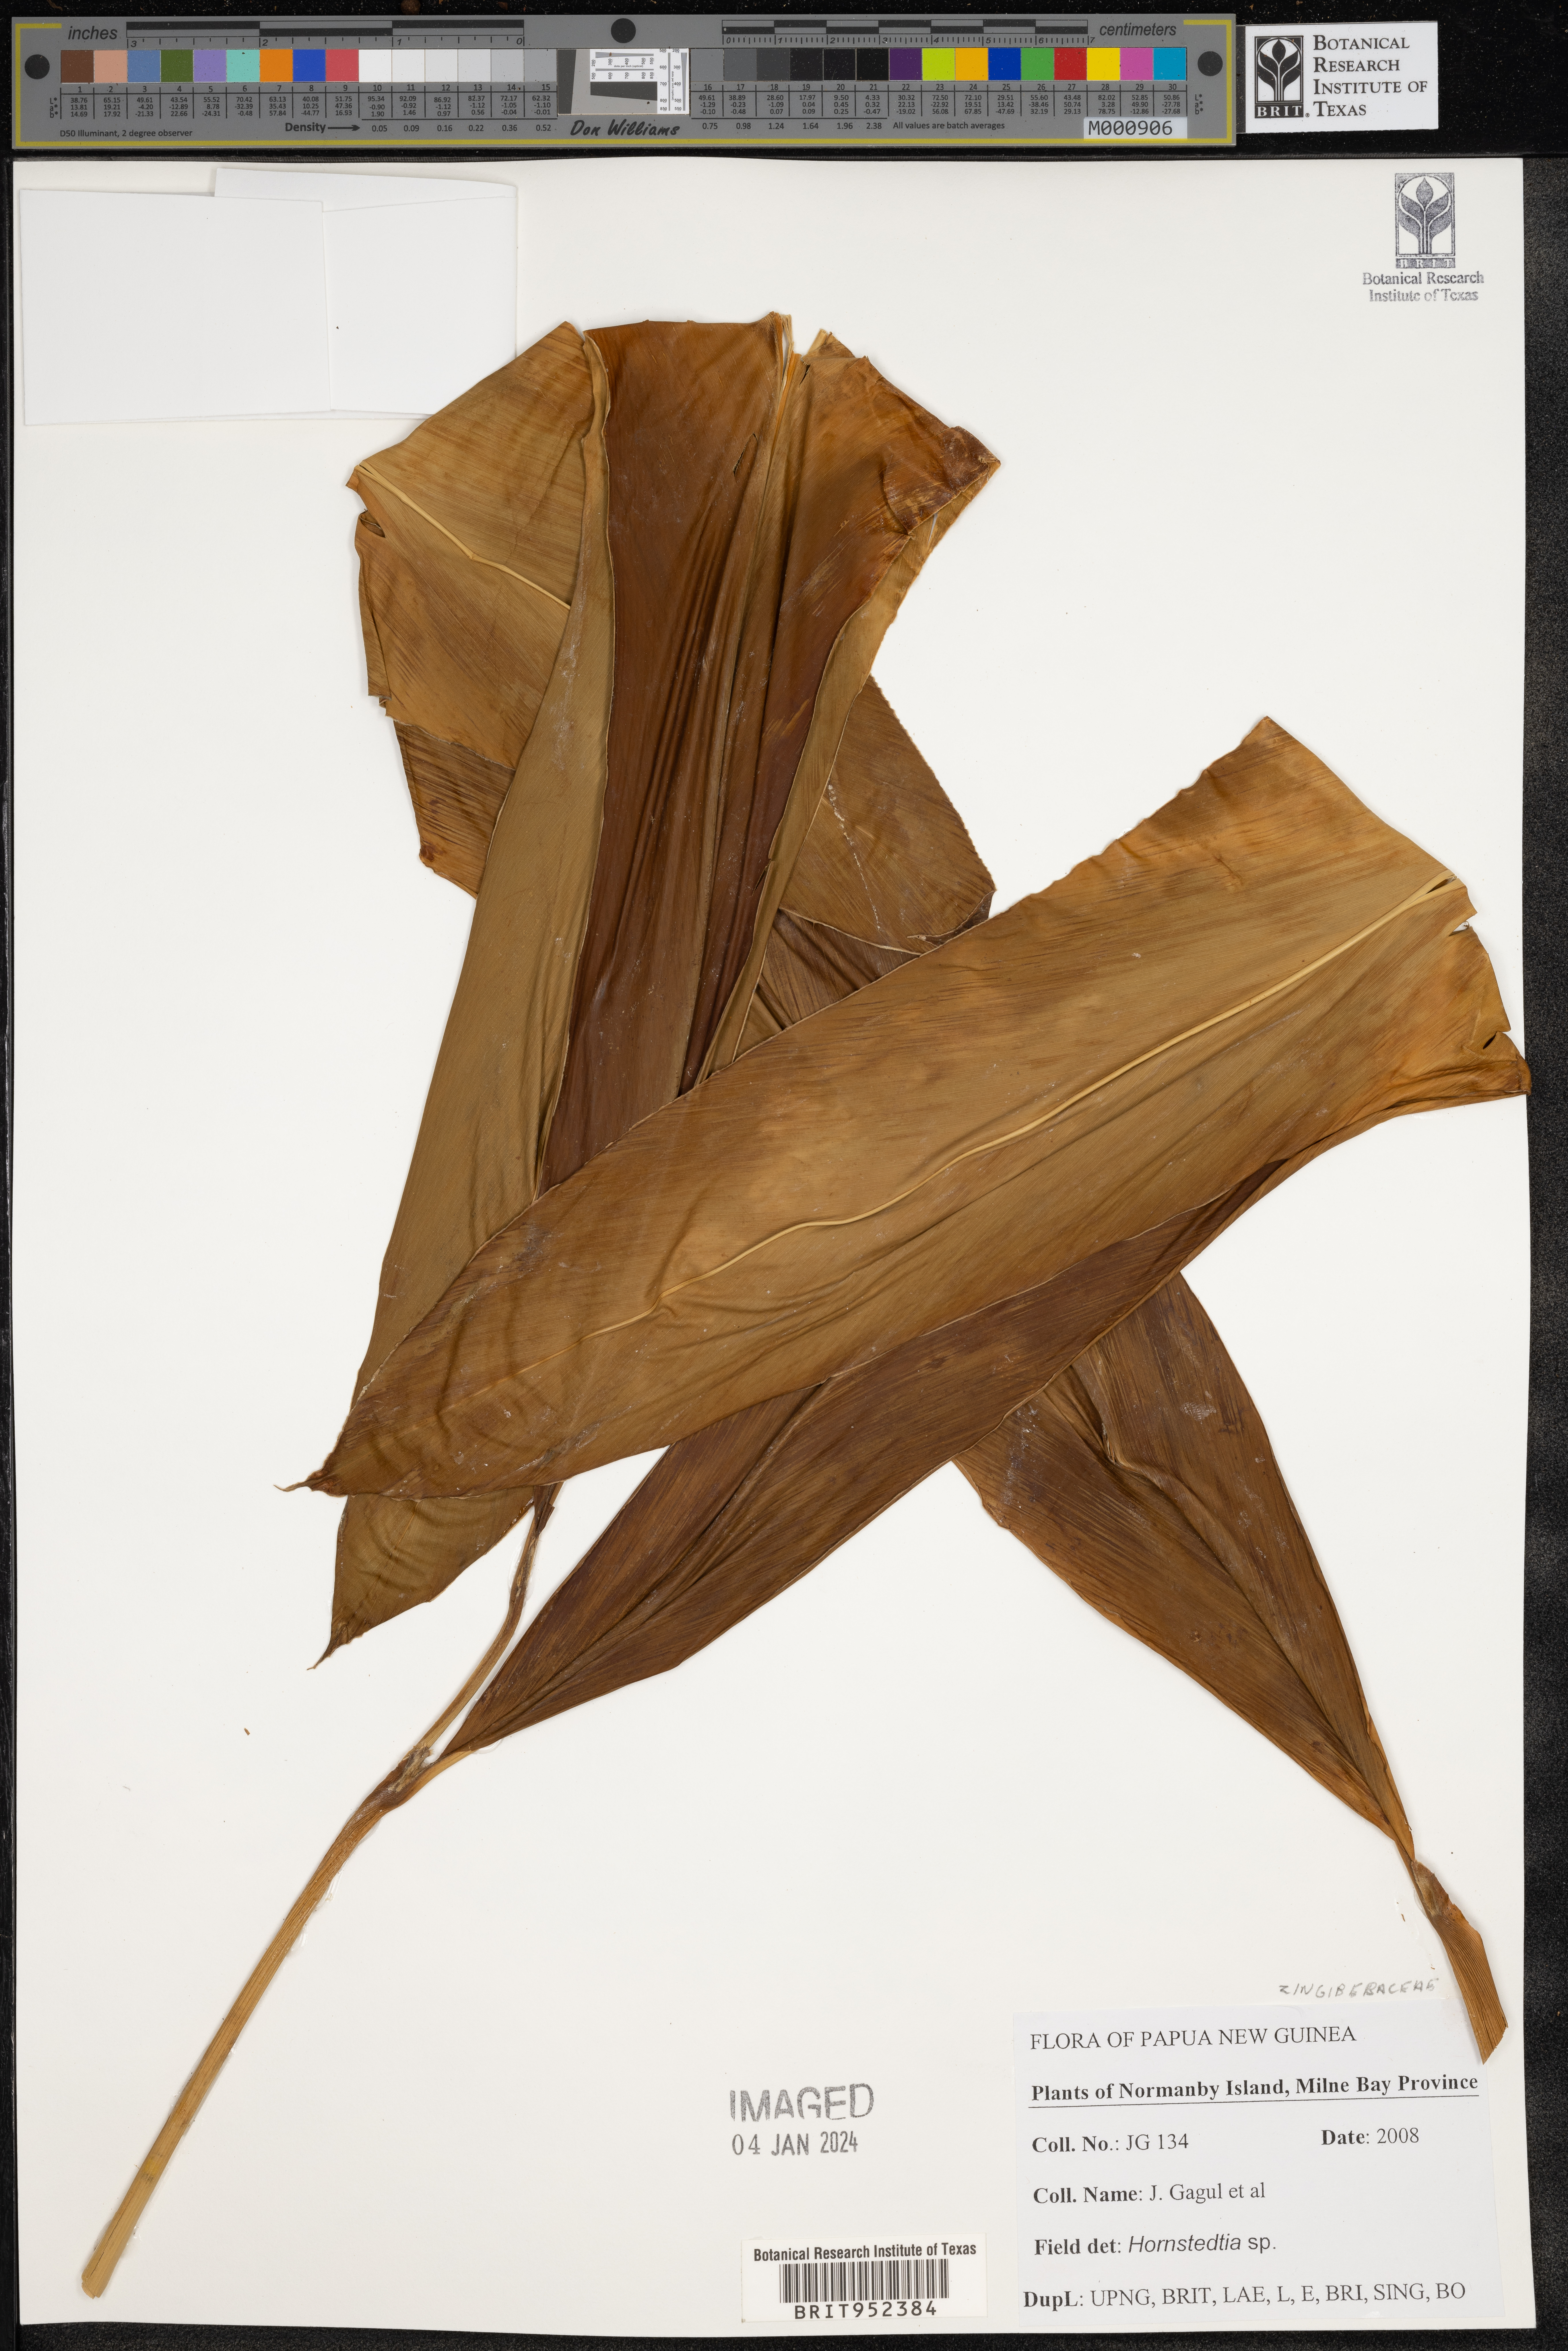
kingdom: Plantae
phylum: Tracheophyta
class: Liliopsida
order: Zingiberales
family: Zingiberaceae
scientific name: Zingiberaceae
